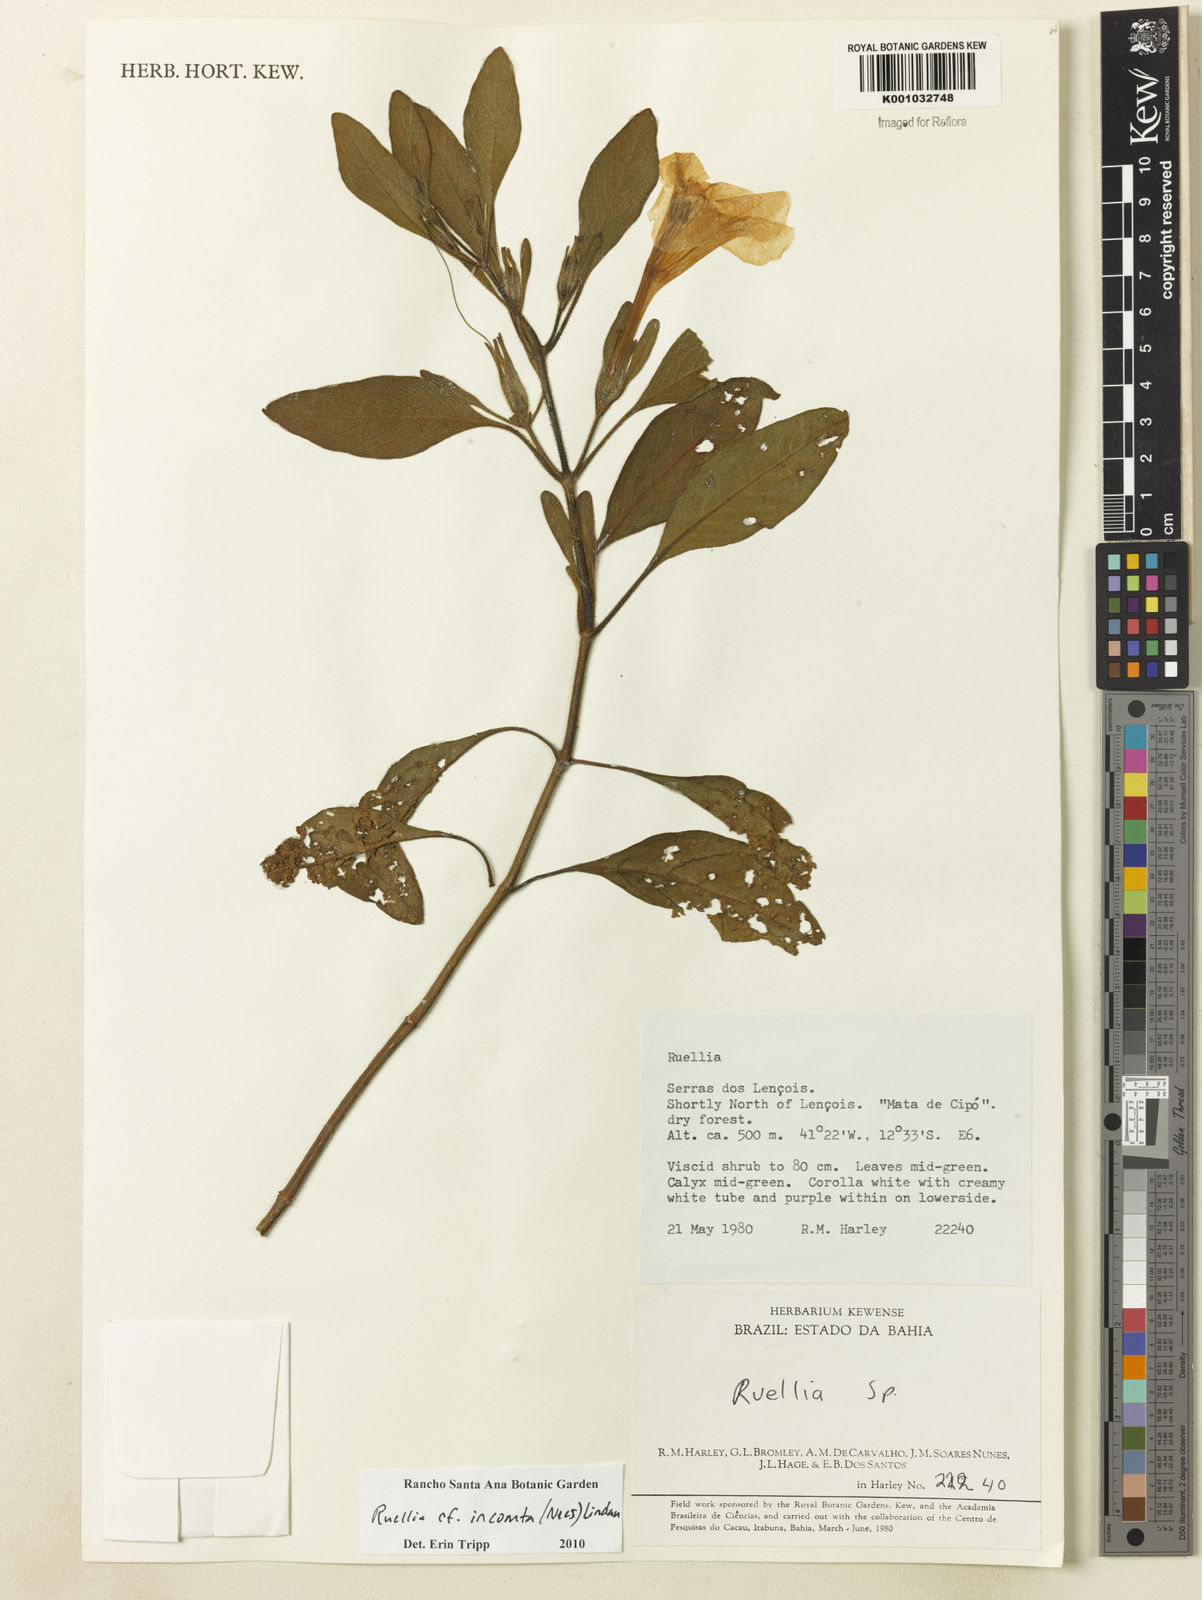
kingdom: Plantae
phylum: Tracheophyta
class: Magnoliopsida
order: Lamiales
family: Acanthaceae
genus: Ruellia
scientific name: Ruellia
